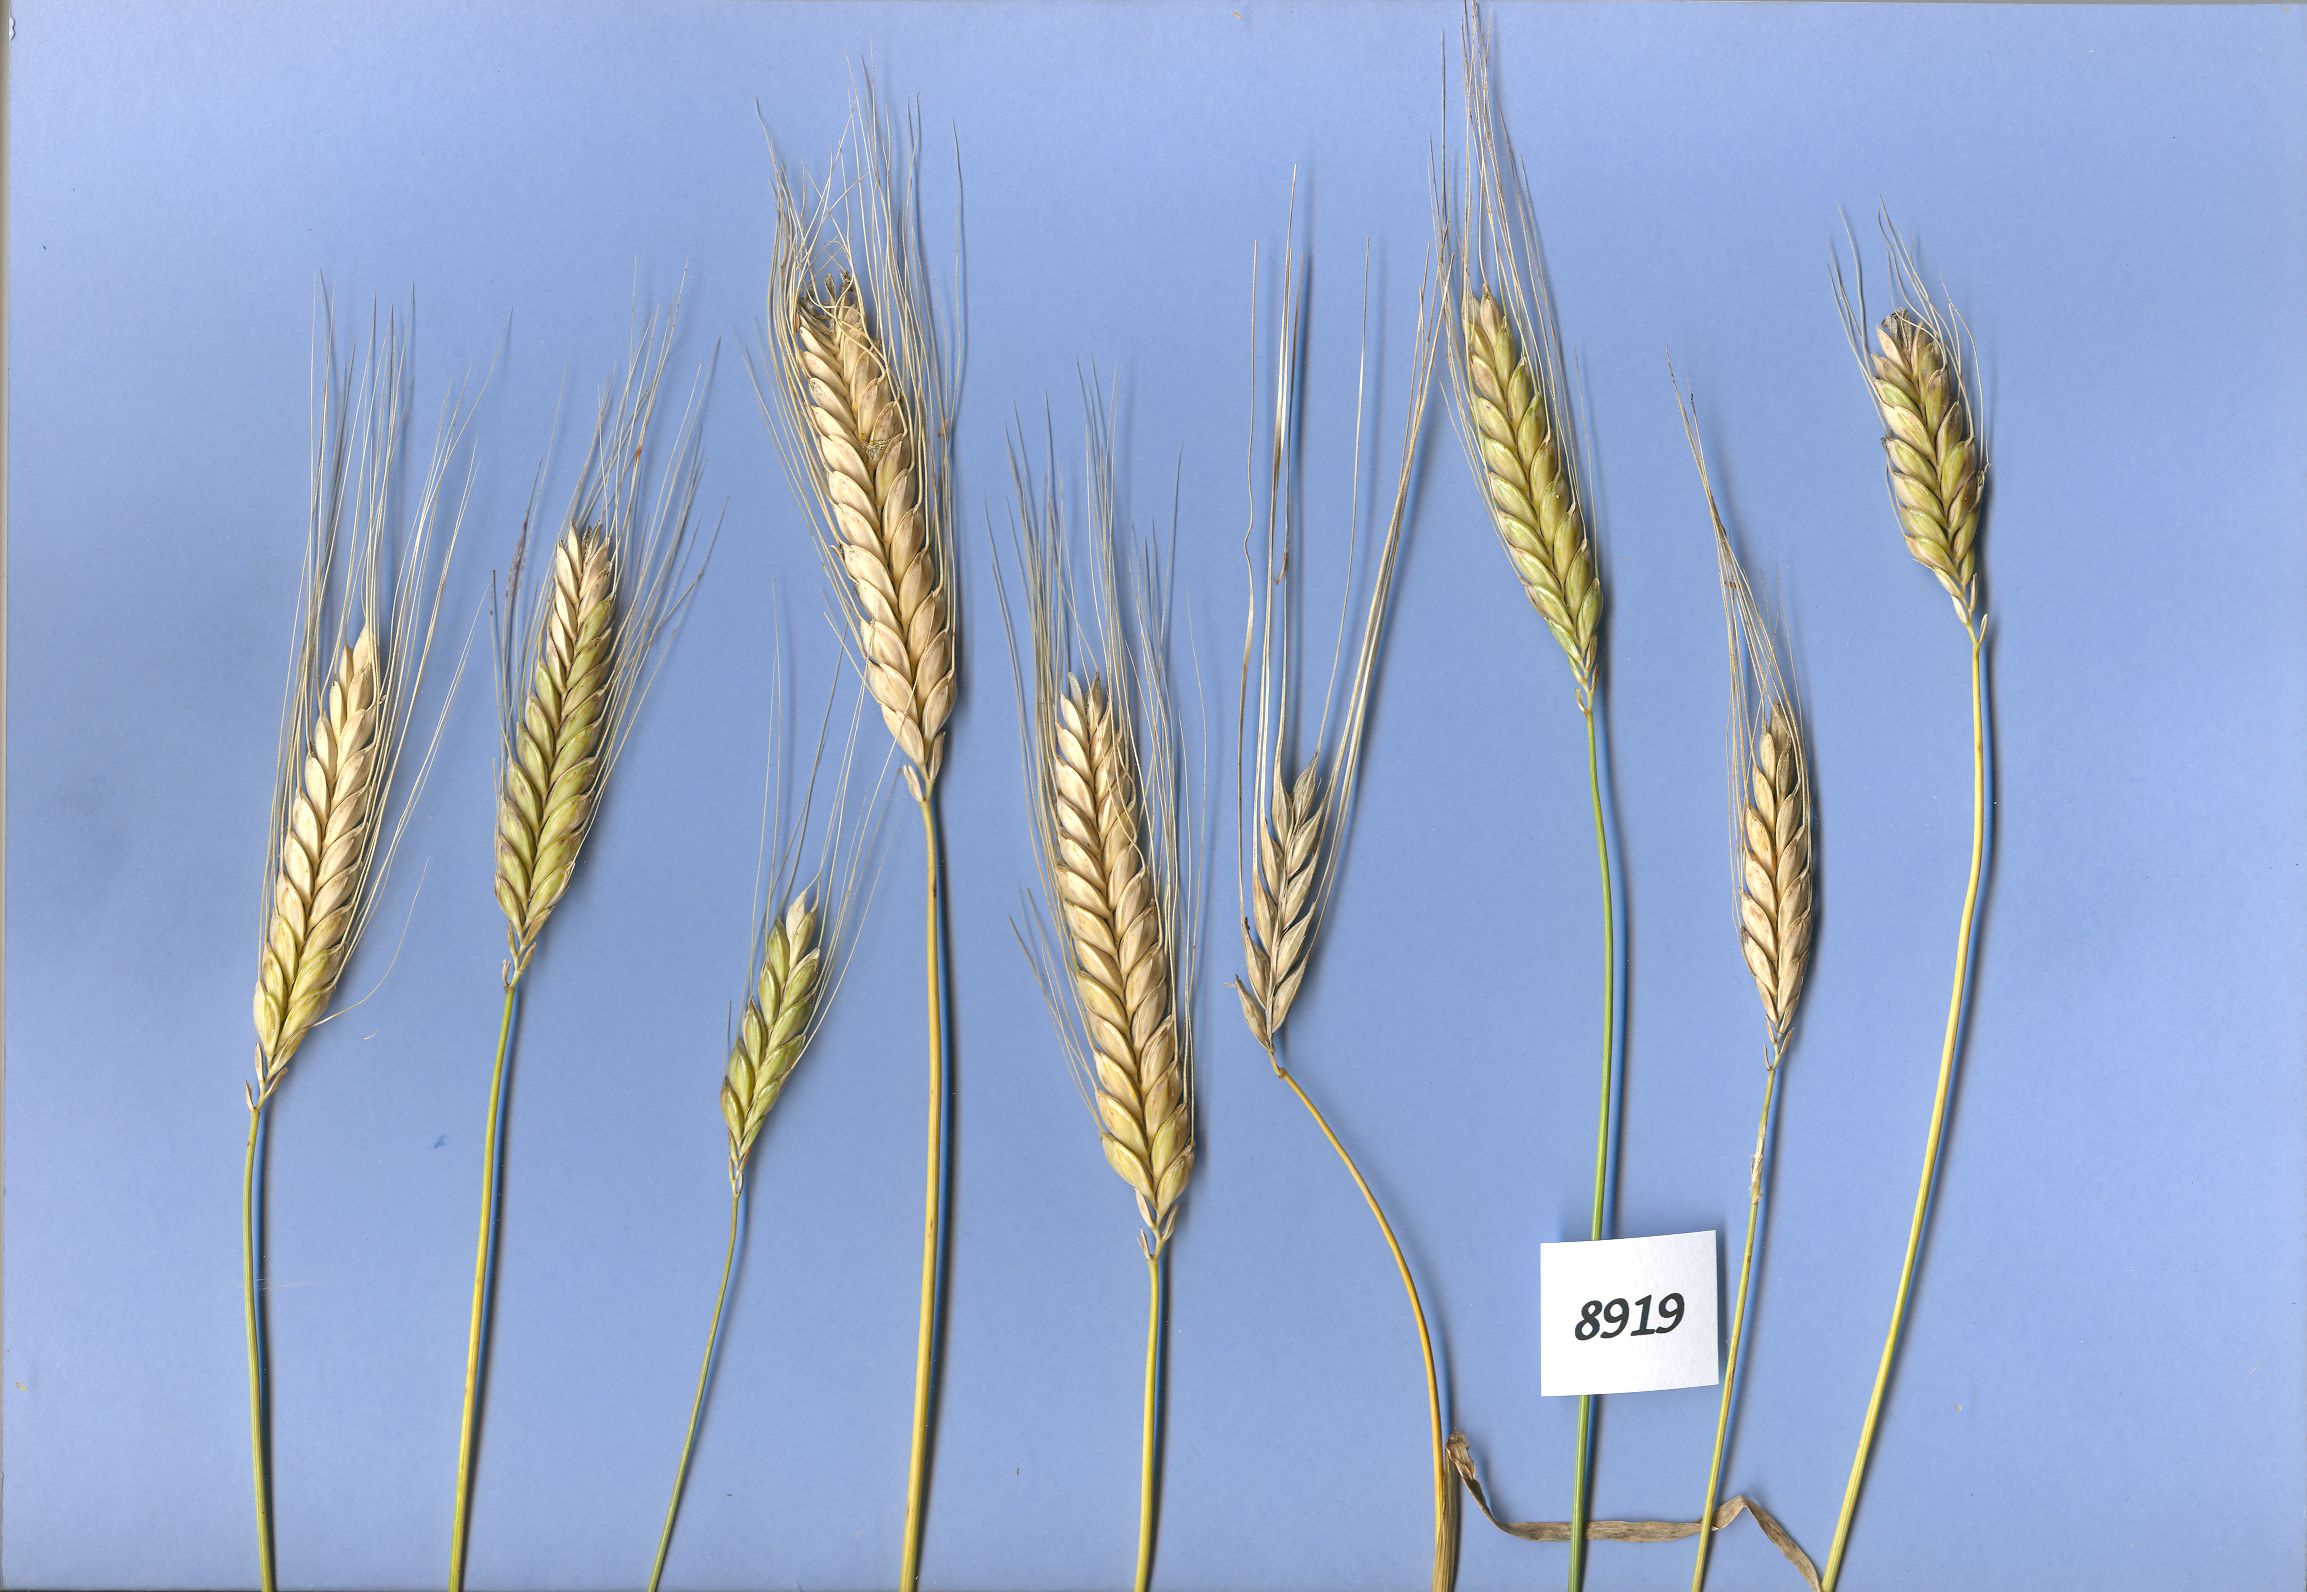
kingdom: Plantae
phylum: Tracheophyta
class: Liliopsida
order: Poales
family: Poaceae
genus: Triticum
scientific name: Triticum turgidum
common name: Rivet wheat
